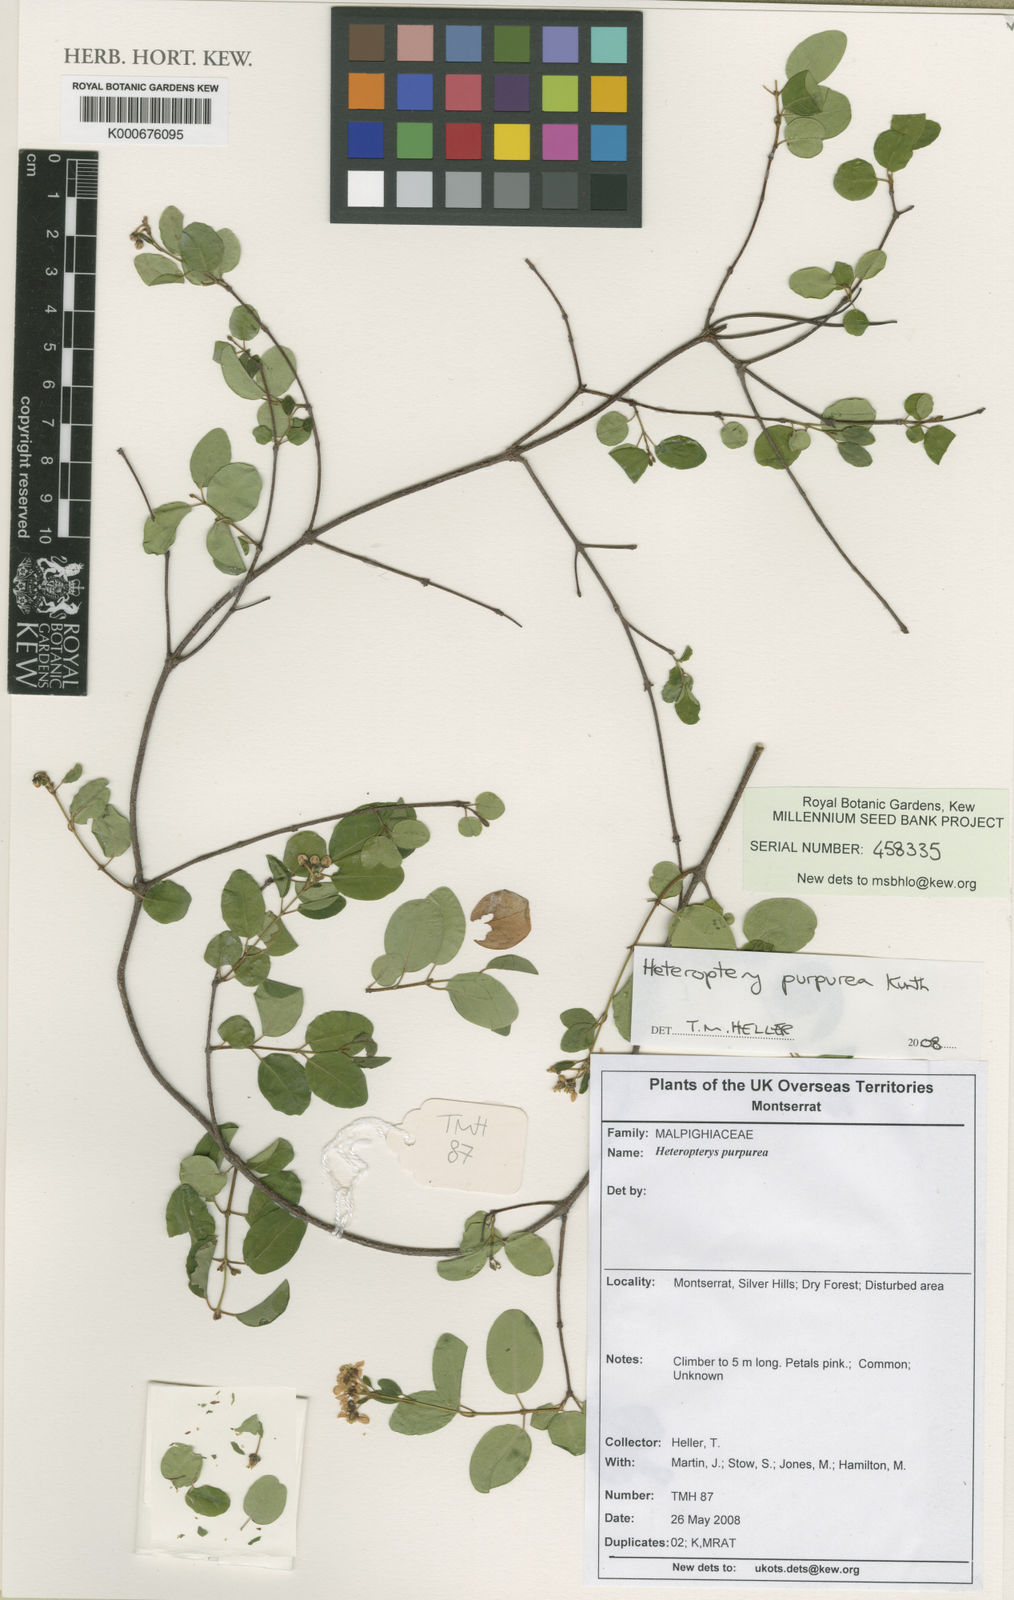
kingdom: Plantae
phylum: Tracheophyta
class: Magnoliopsida
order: Malpighiales
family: Malpighiaceae
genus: Heteropterys
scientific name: Heteropterys purpurea
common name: Bull withe
